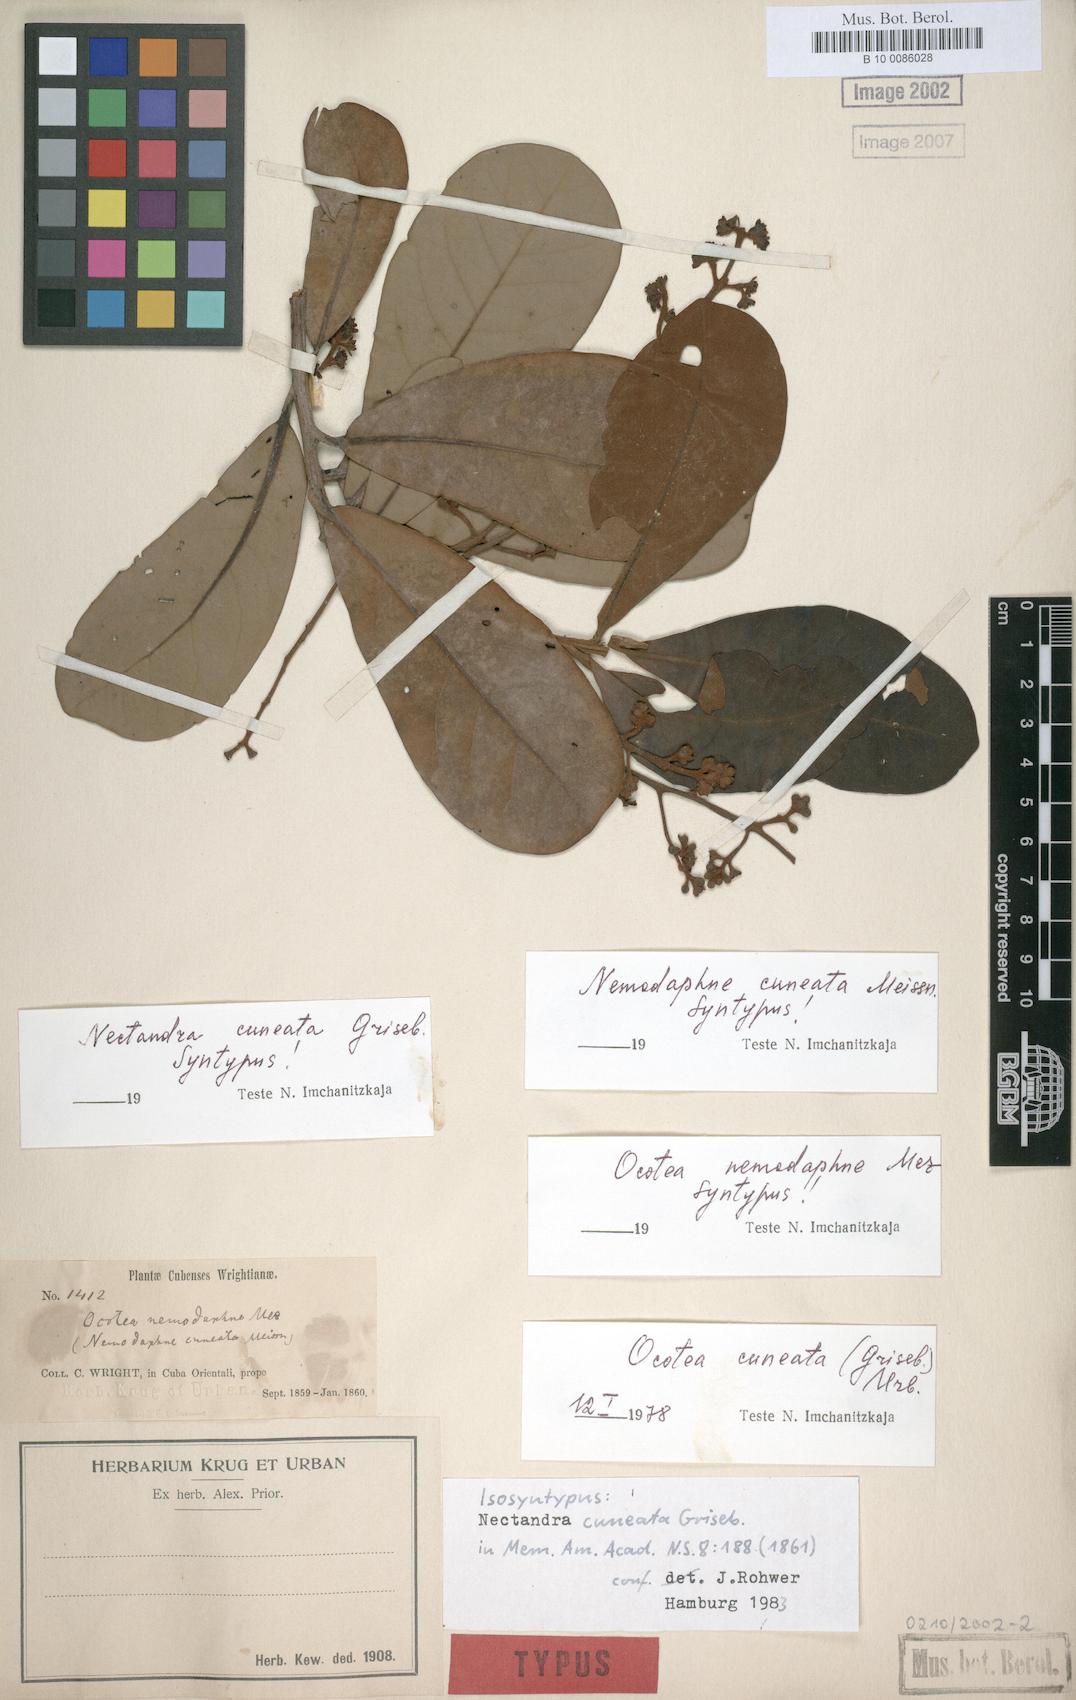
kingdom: Plantae
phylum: Tracheophyta
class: Magnoliopsida
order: Laurales
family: Lauraceae
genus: Ocotea
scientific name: Ocotea cuneata
